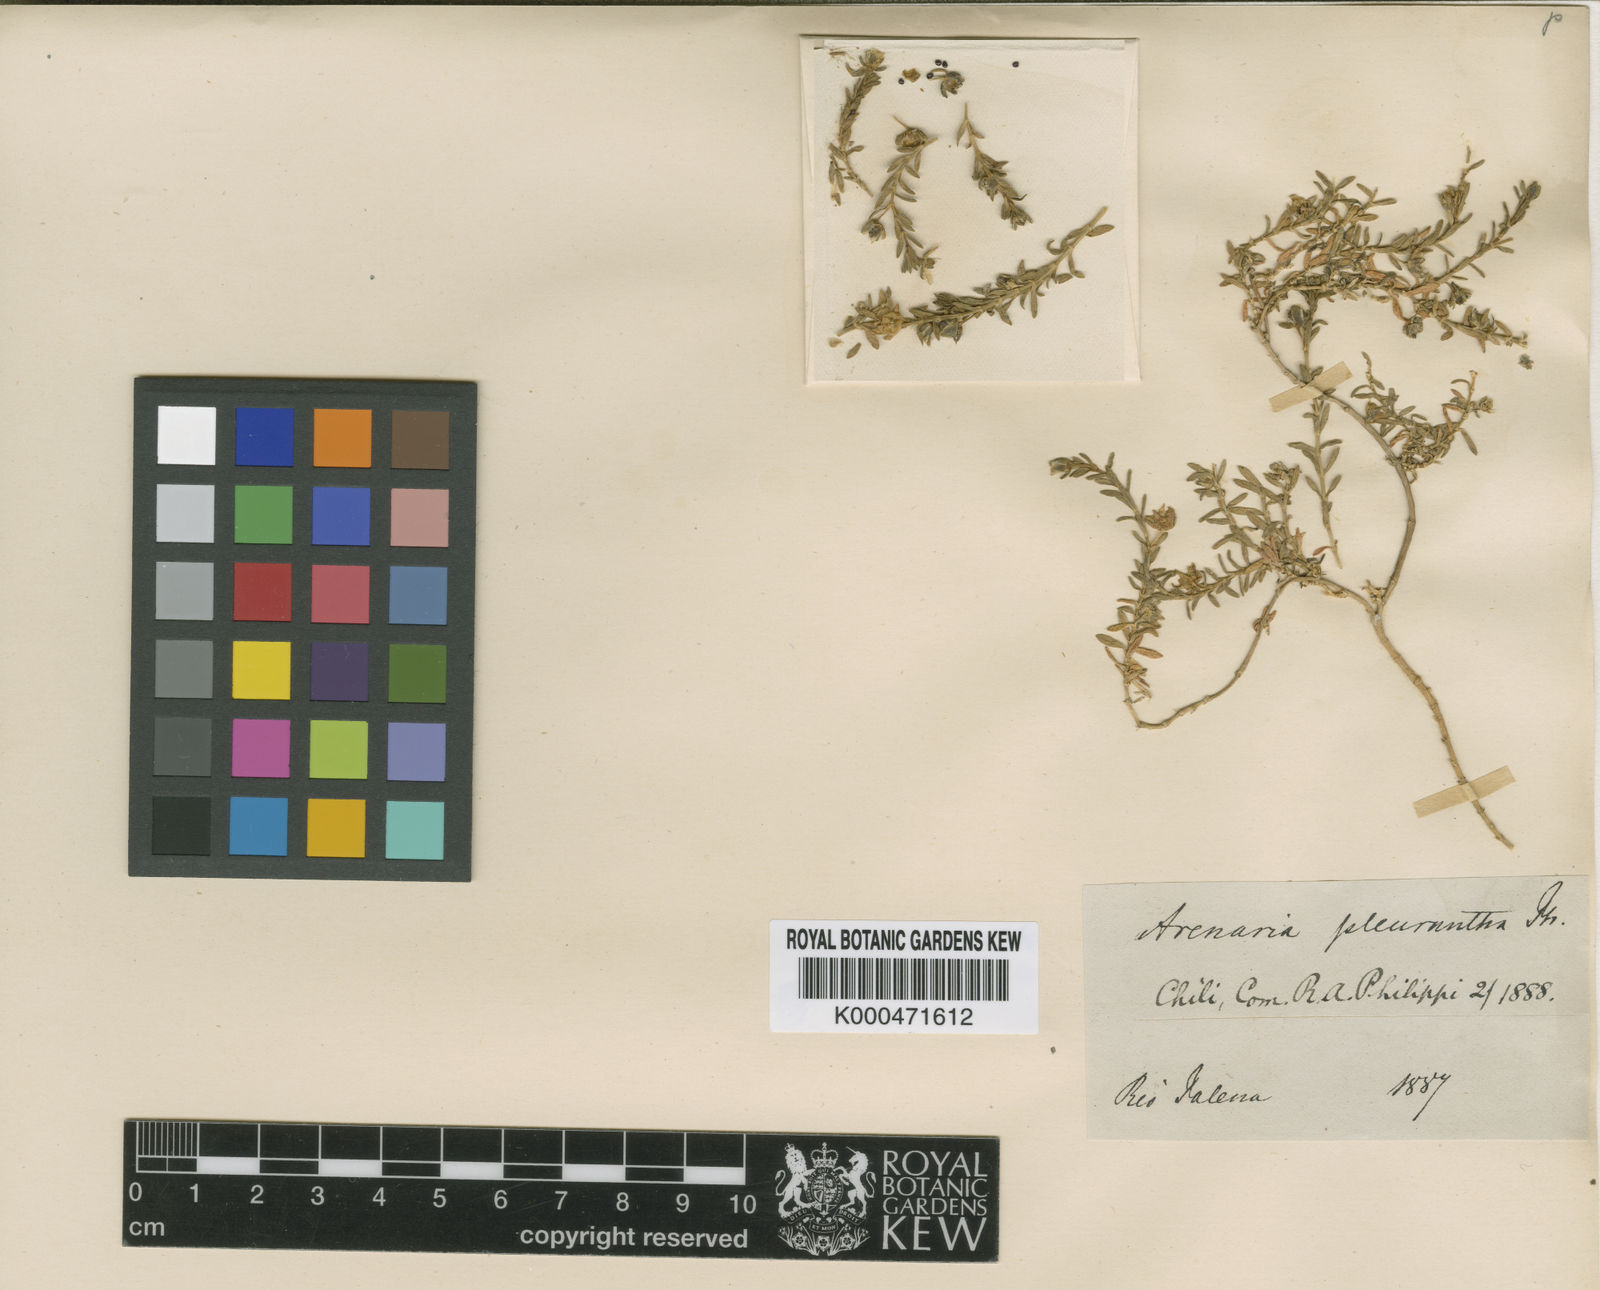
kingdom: Plantae
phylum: Tracheophyta
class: Magnoliopsida
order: Caryophyllales
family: Caryophyllaceae
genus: Arenaria
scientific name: Arenaria pleurantha
